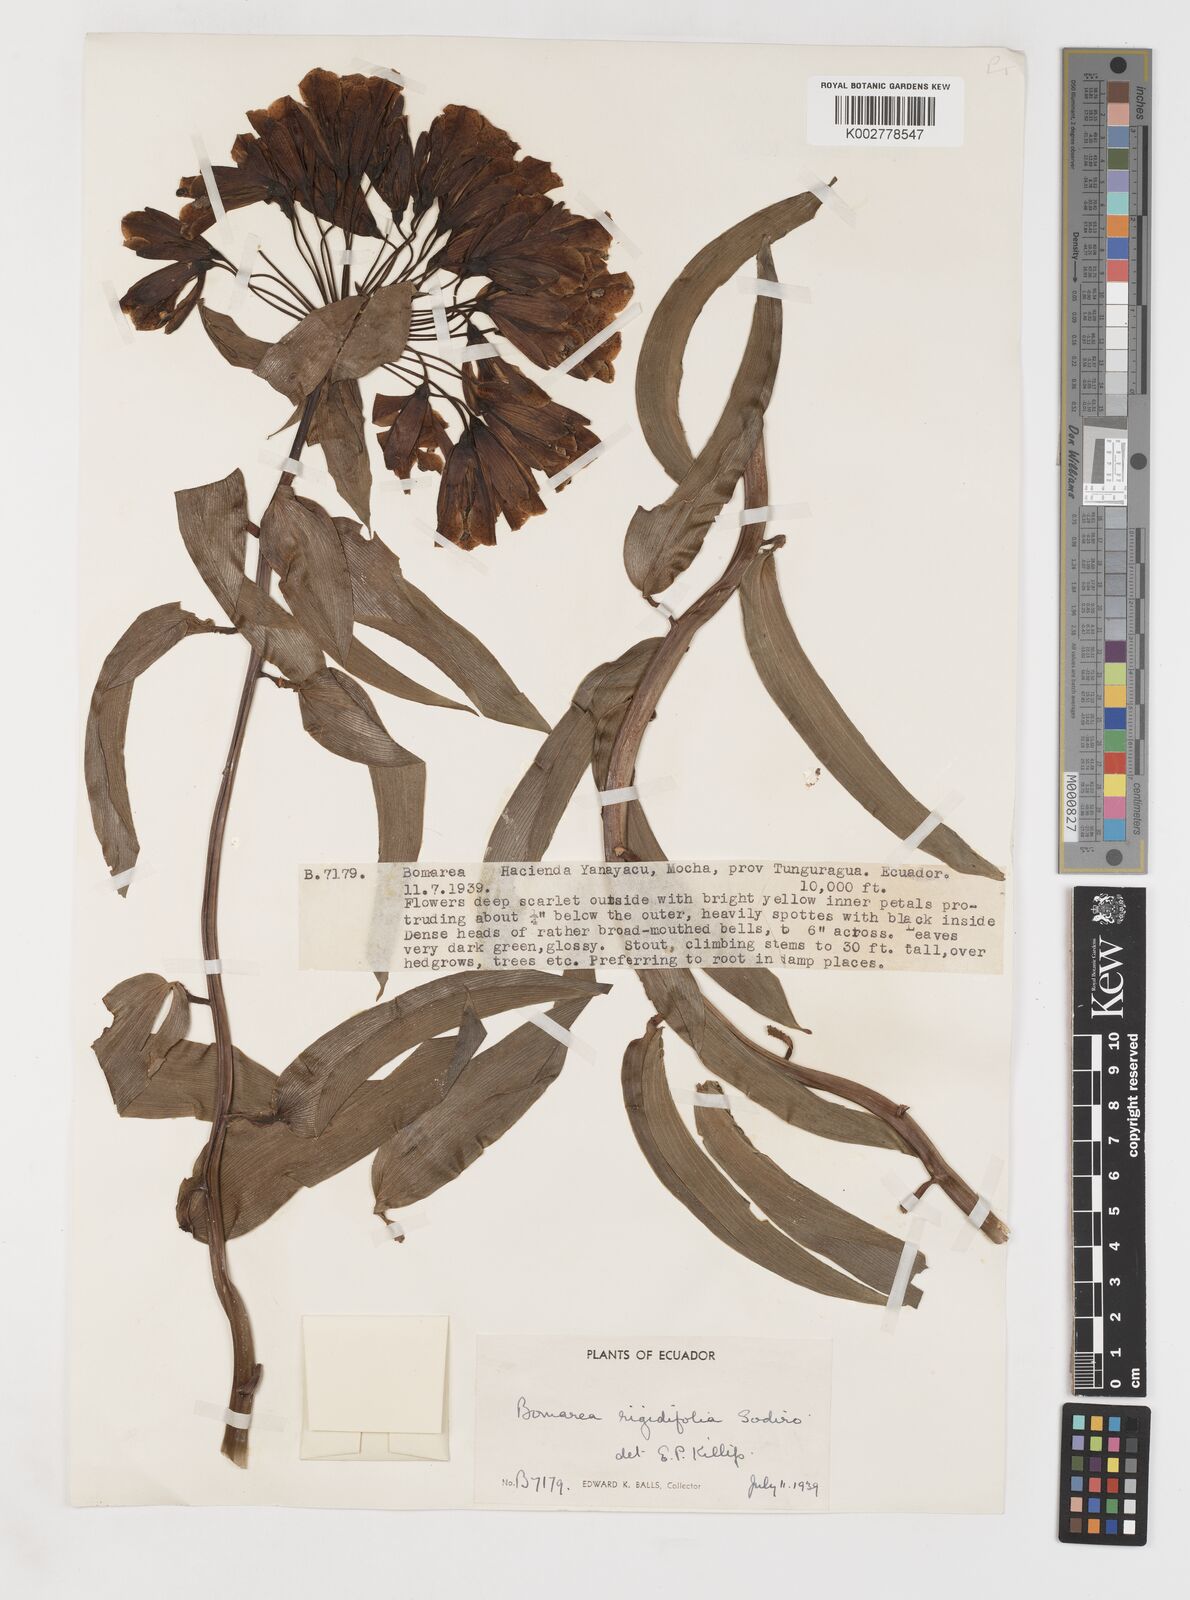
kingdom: Plantae
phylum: Tracheophyta
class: Liliopsida
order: Liliales
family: Alstroemeriaceae
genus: Bomarea
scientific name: Bomarea multiflora
